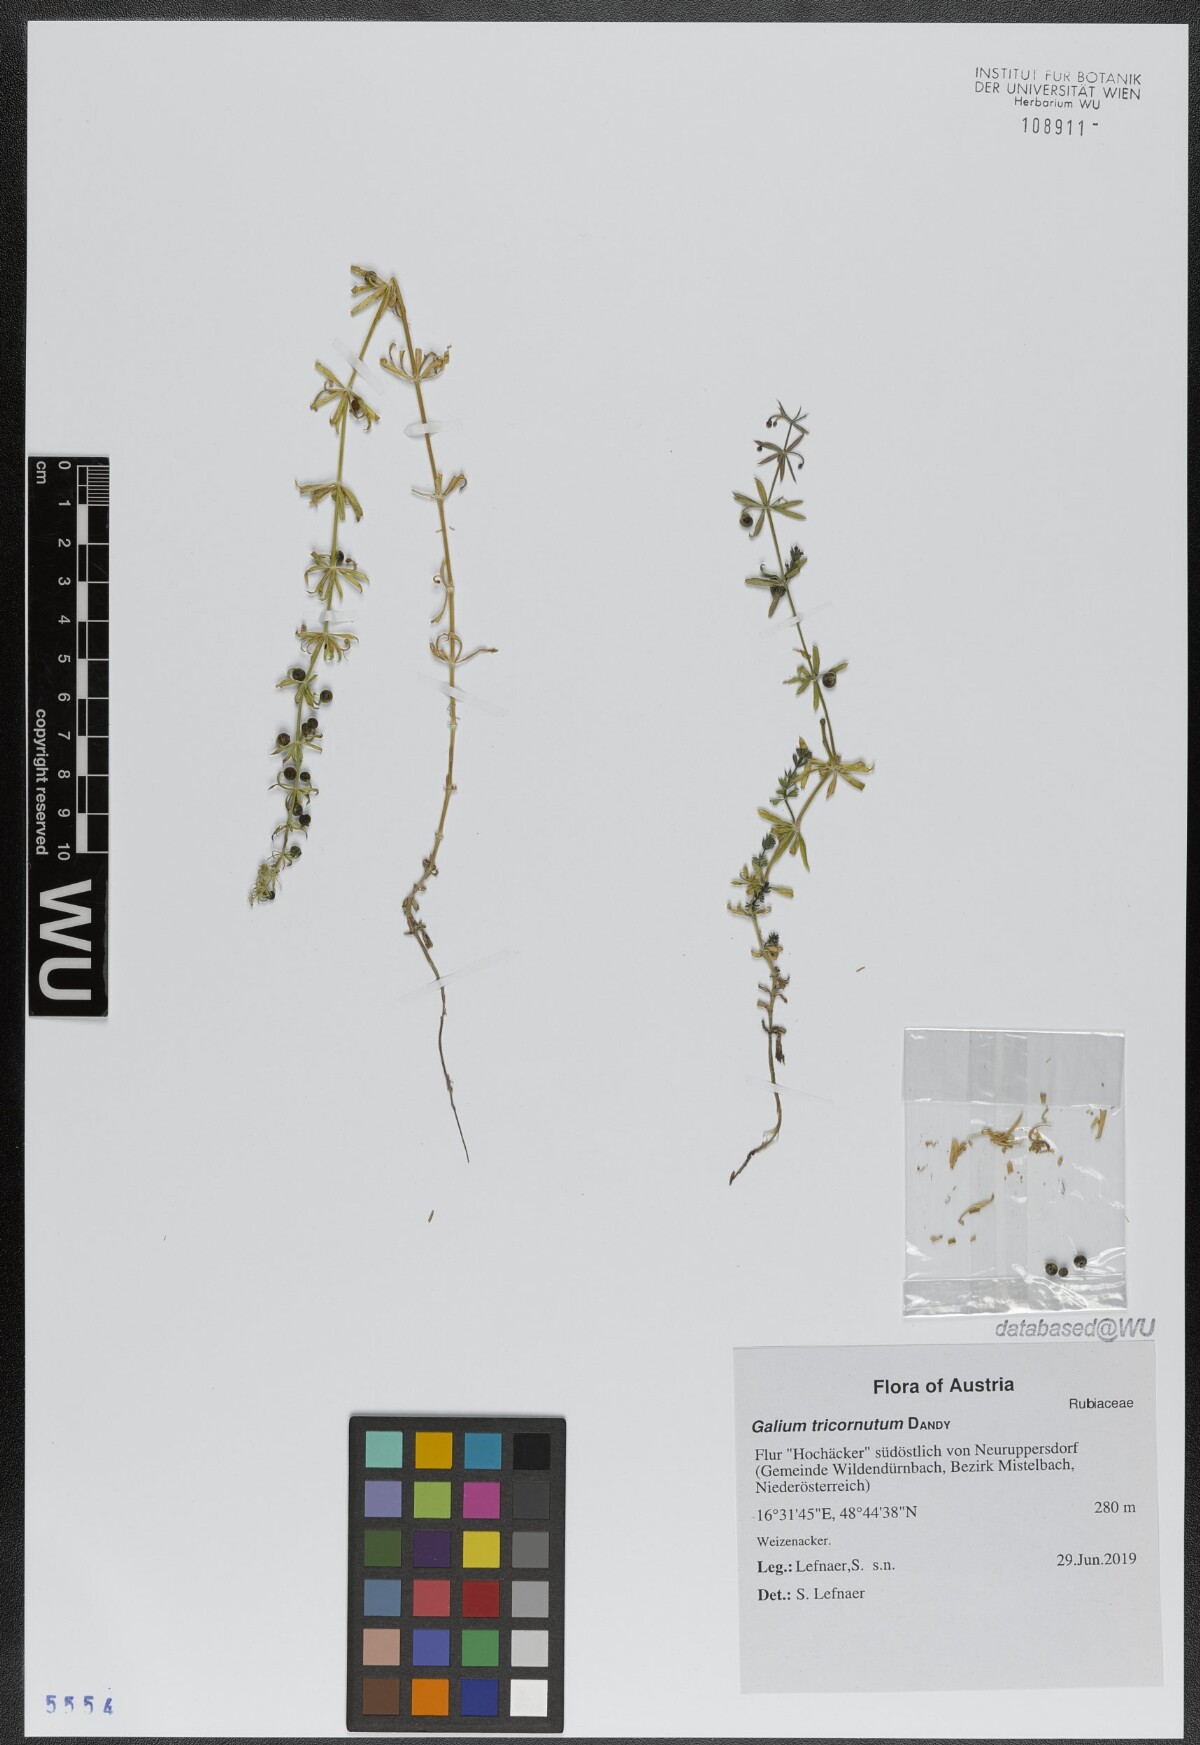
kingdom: Plantae
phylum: Tracheophyta
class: Magnoliopsida
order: Gentianales
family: Rubiaceae
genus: Galium
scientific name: Galium tricornutum
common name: Corn cleavers
